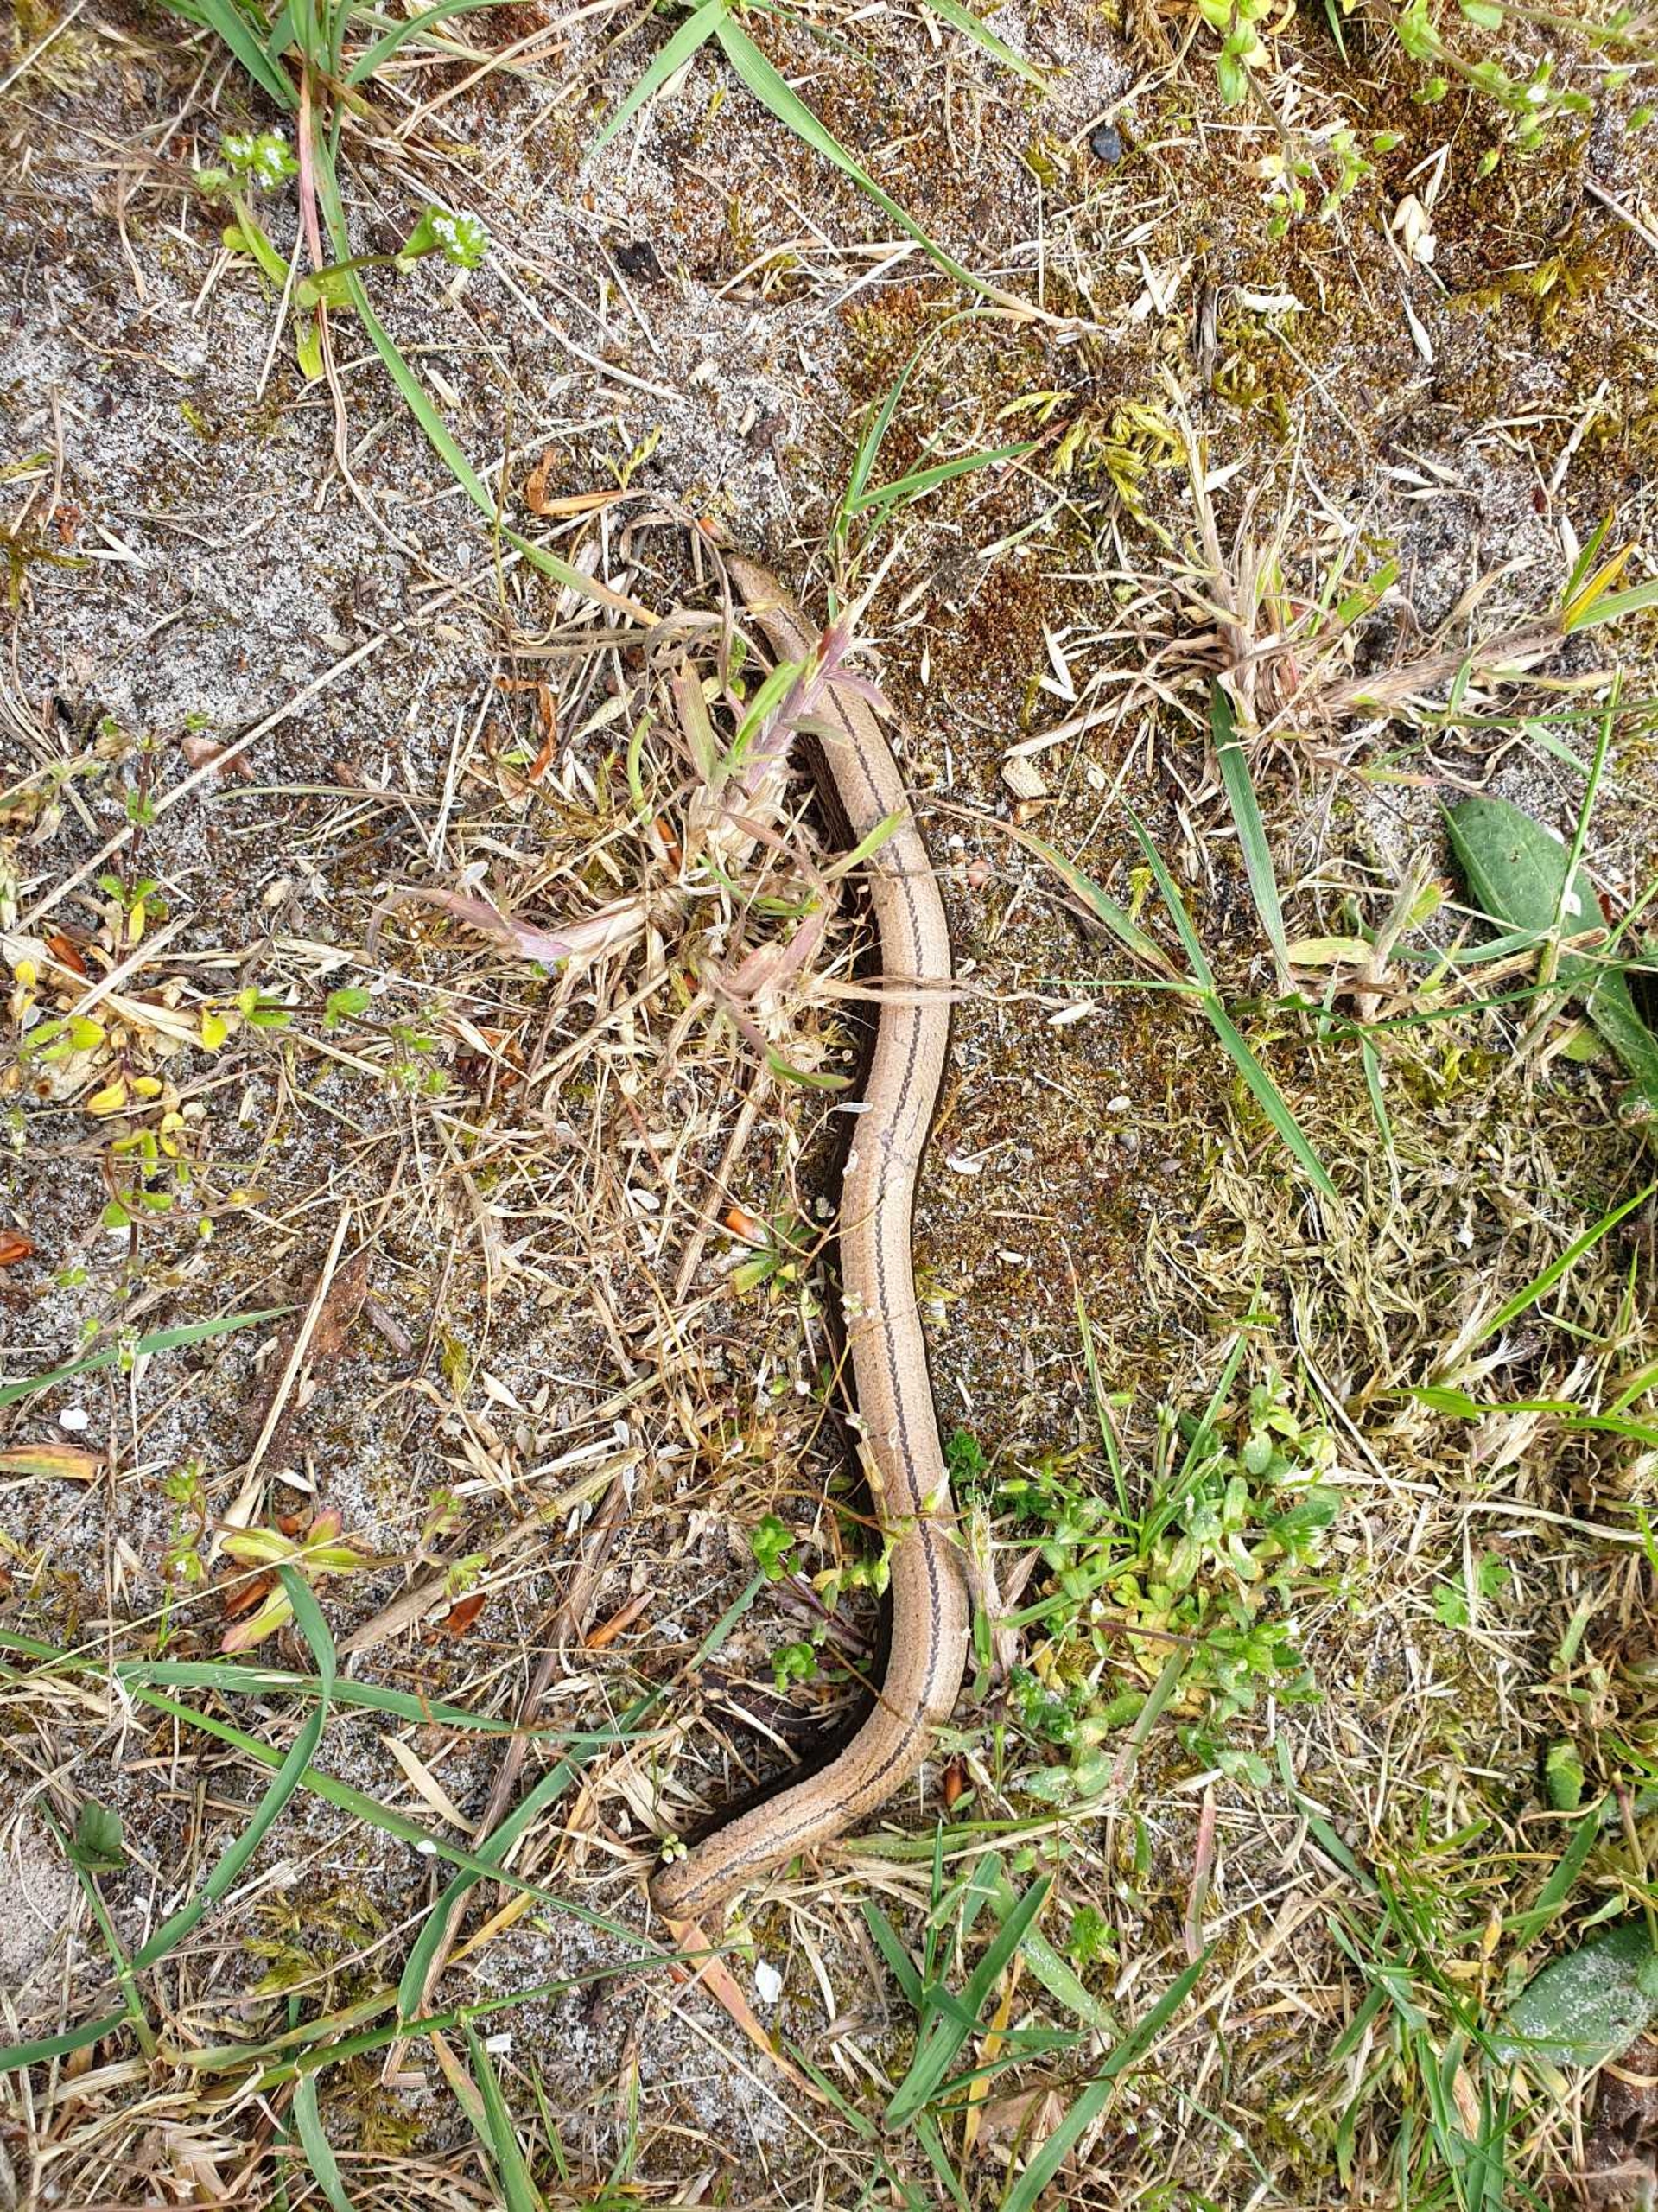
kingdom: Animalia
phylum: Chordata
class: Squamata
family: Anguidae
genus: Anguis
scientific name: Anguis fragilis
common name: Stålorm
